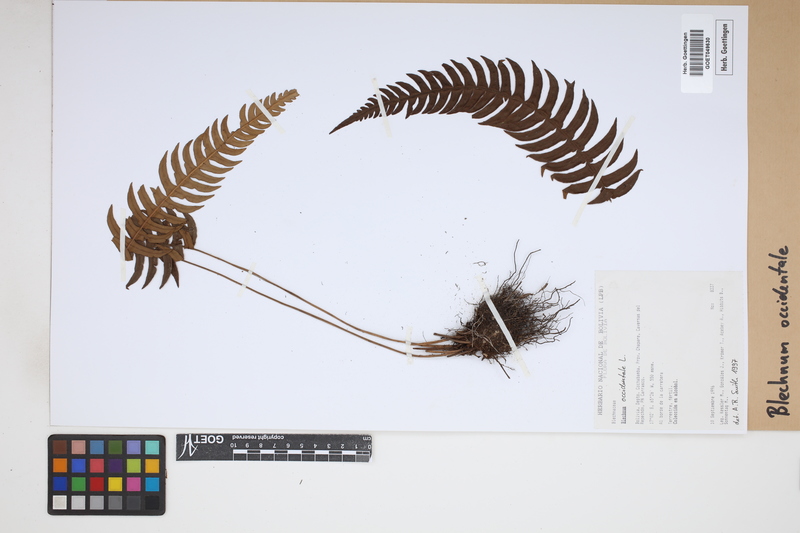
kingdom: Plantae
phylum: Tracheophyta
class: Polypodiopsida
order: Polypodiales
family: Blechnaceae
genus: Blechnum
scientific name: Blechnum occidentale
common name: Hammock fern
